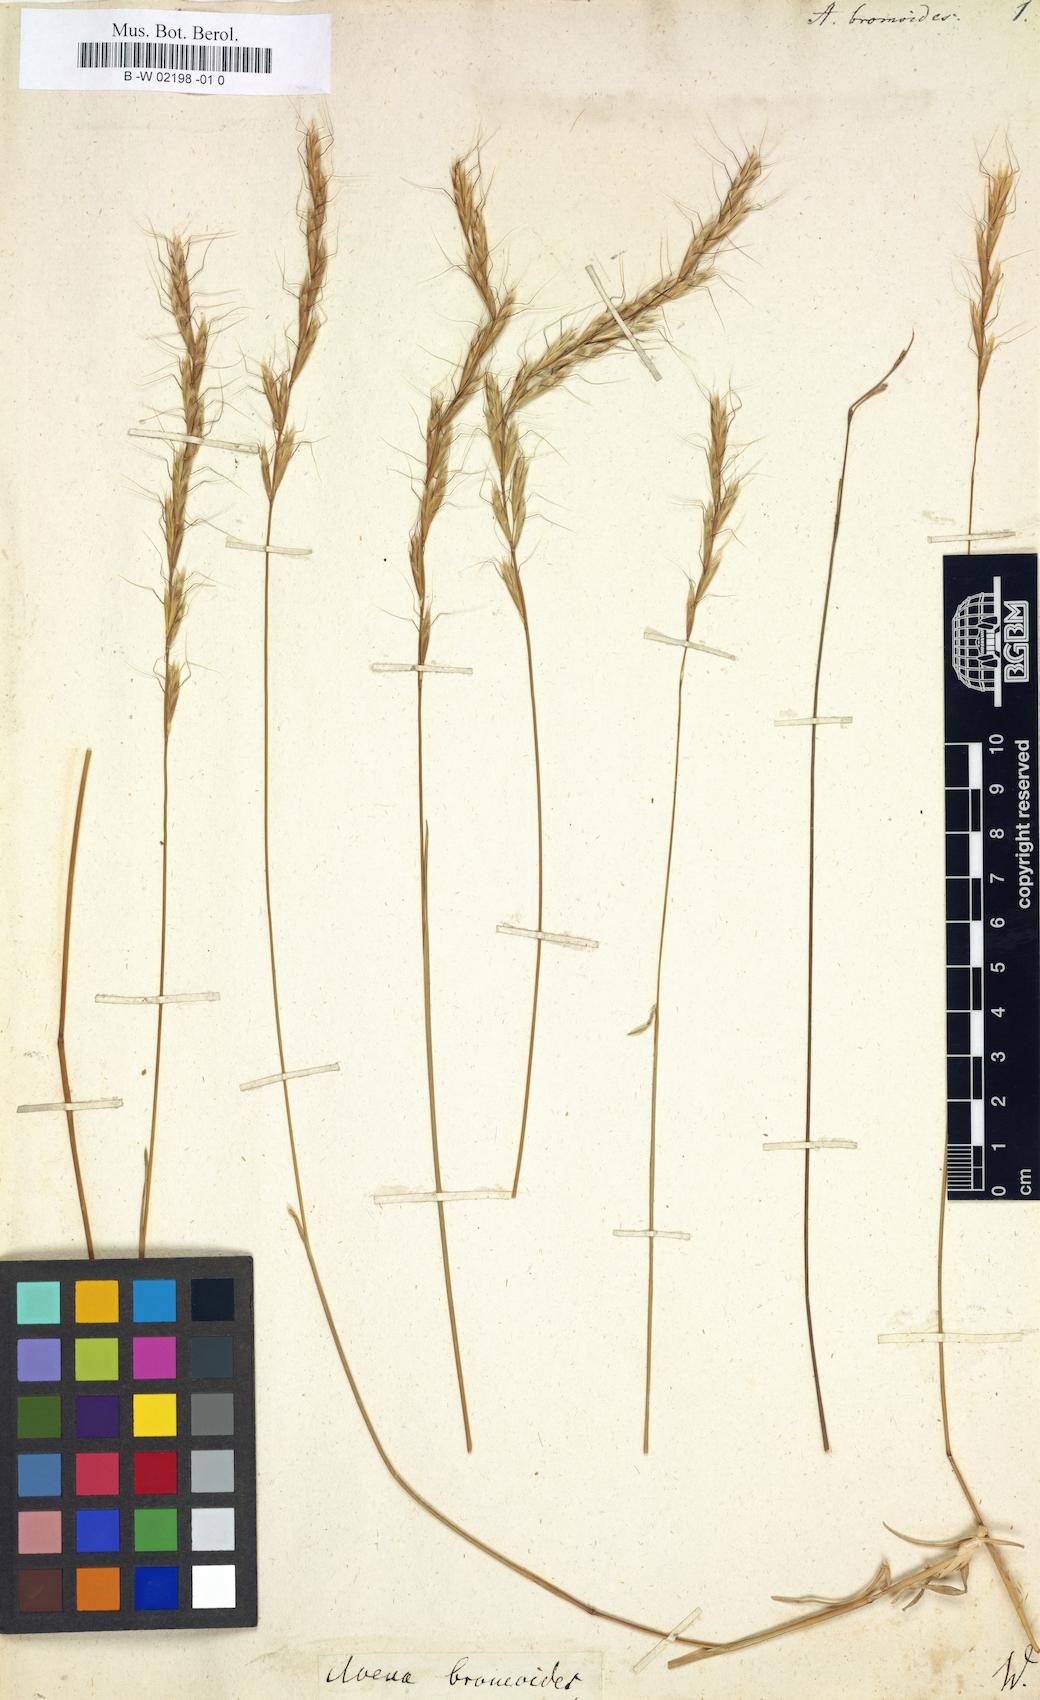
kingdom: Plantae
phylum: Tracheophyta
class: Liliopsida
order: Poales
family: Poaceae
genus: Helictochloa
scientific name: Helictochloa
